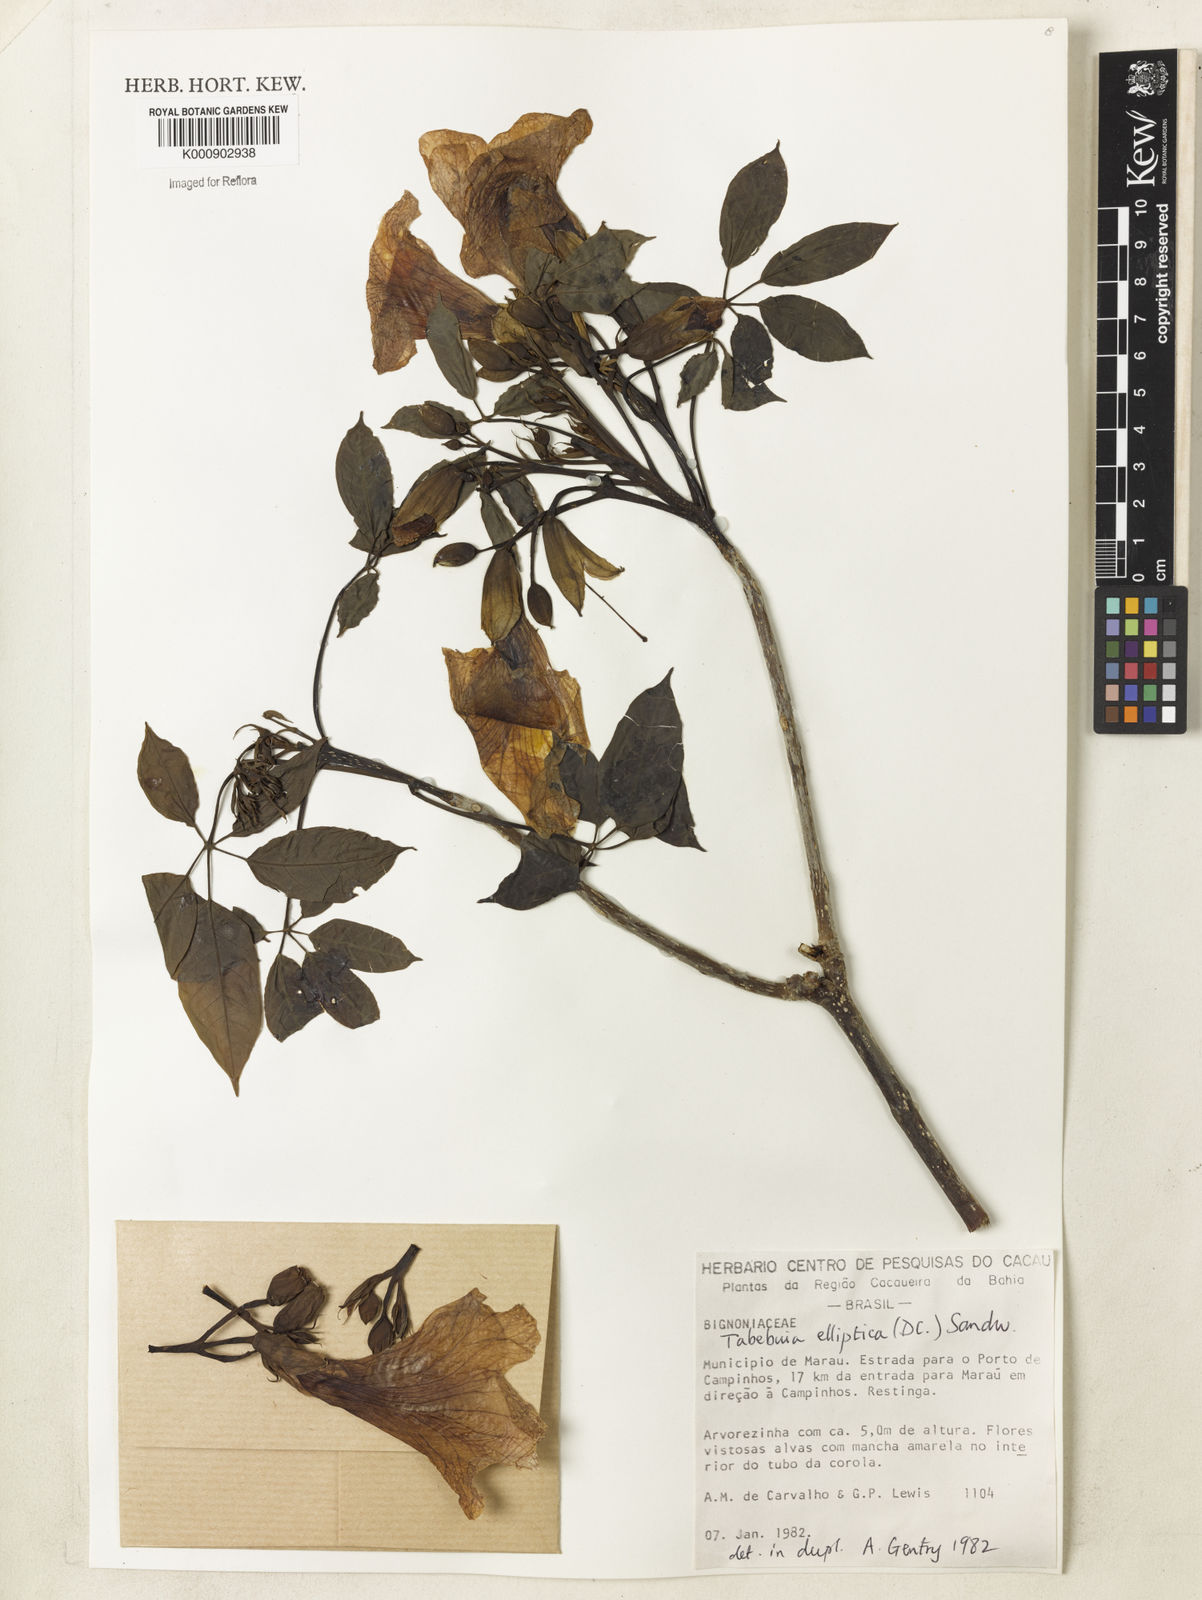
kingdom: Plantae
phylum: Tracheophyta
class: Magnoliopsida
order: Lamiales
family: Bignoniaceae
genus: Tabebuia
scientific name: Tabebuia elliptica
